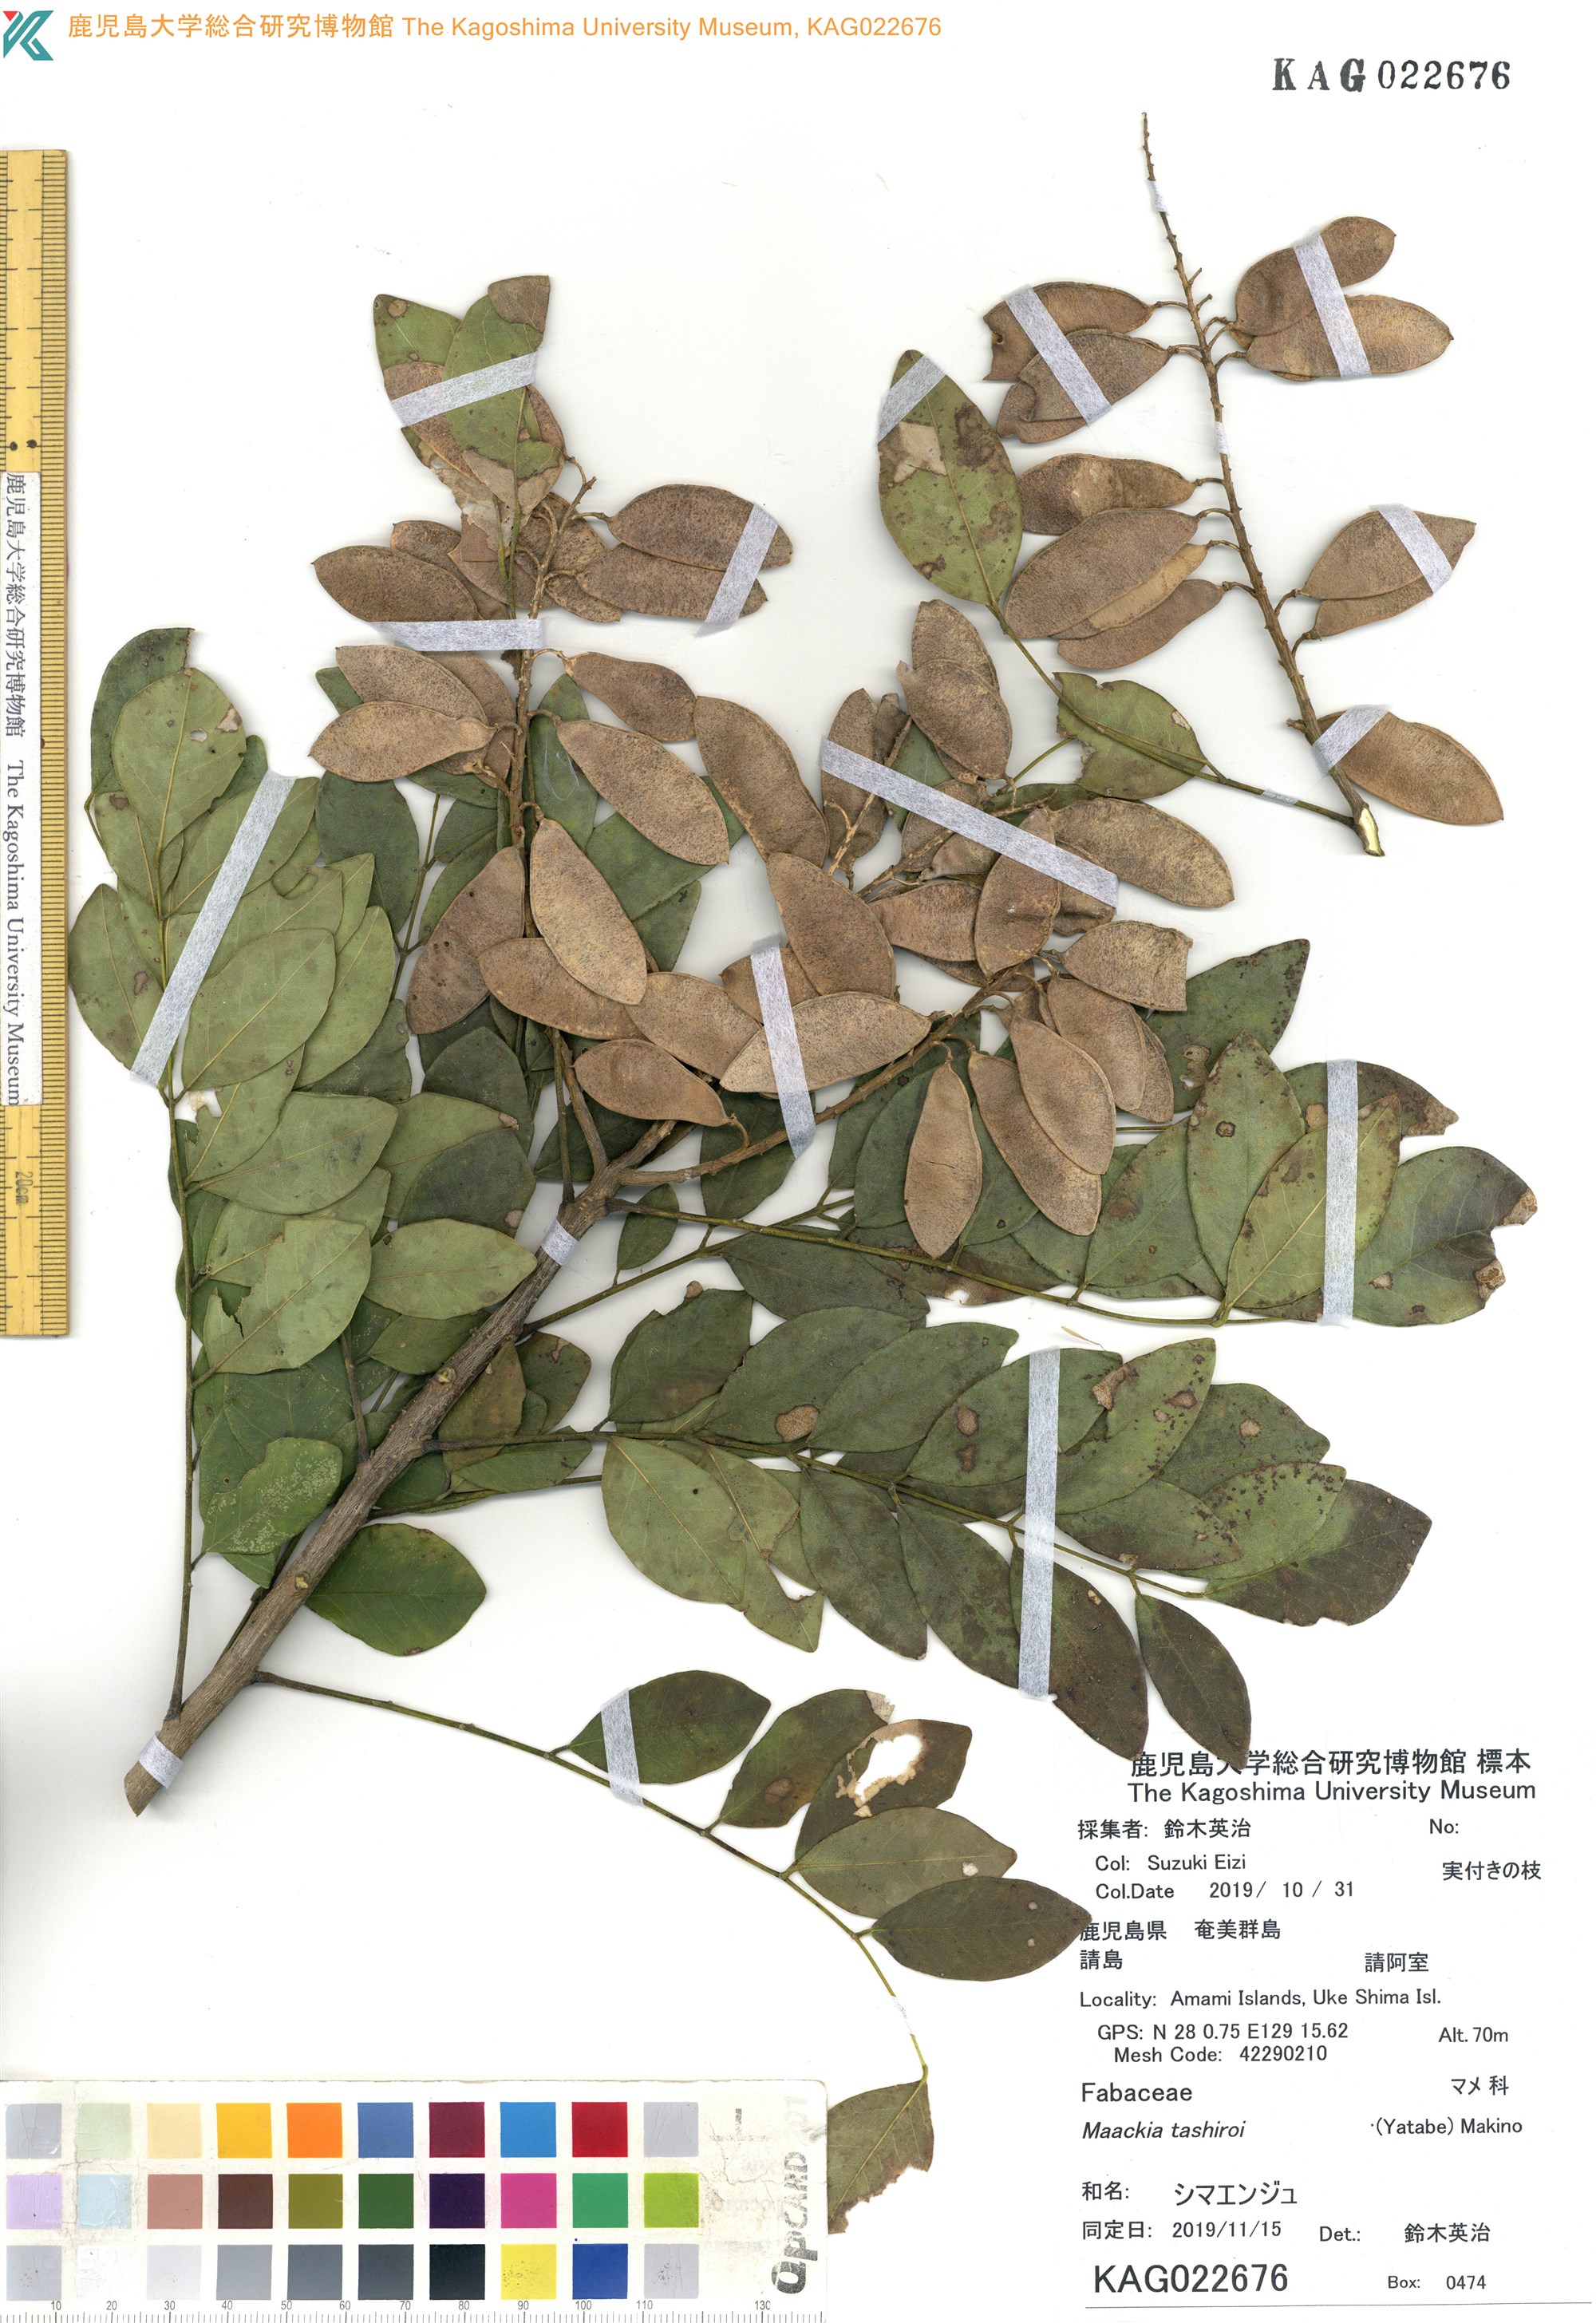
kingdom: Plantae
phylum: Tracheophyta
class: Magnoliopsida
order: Fabales
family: Fabaceae
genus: Maackia
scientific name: Maackia tashiroi
